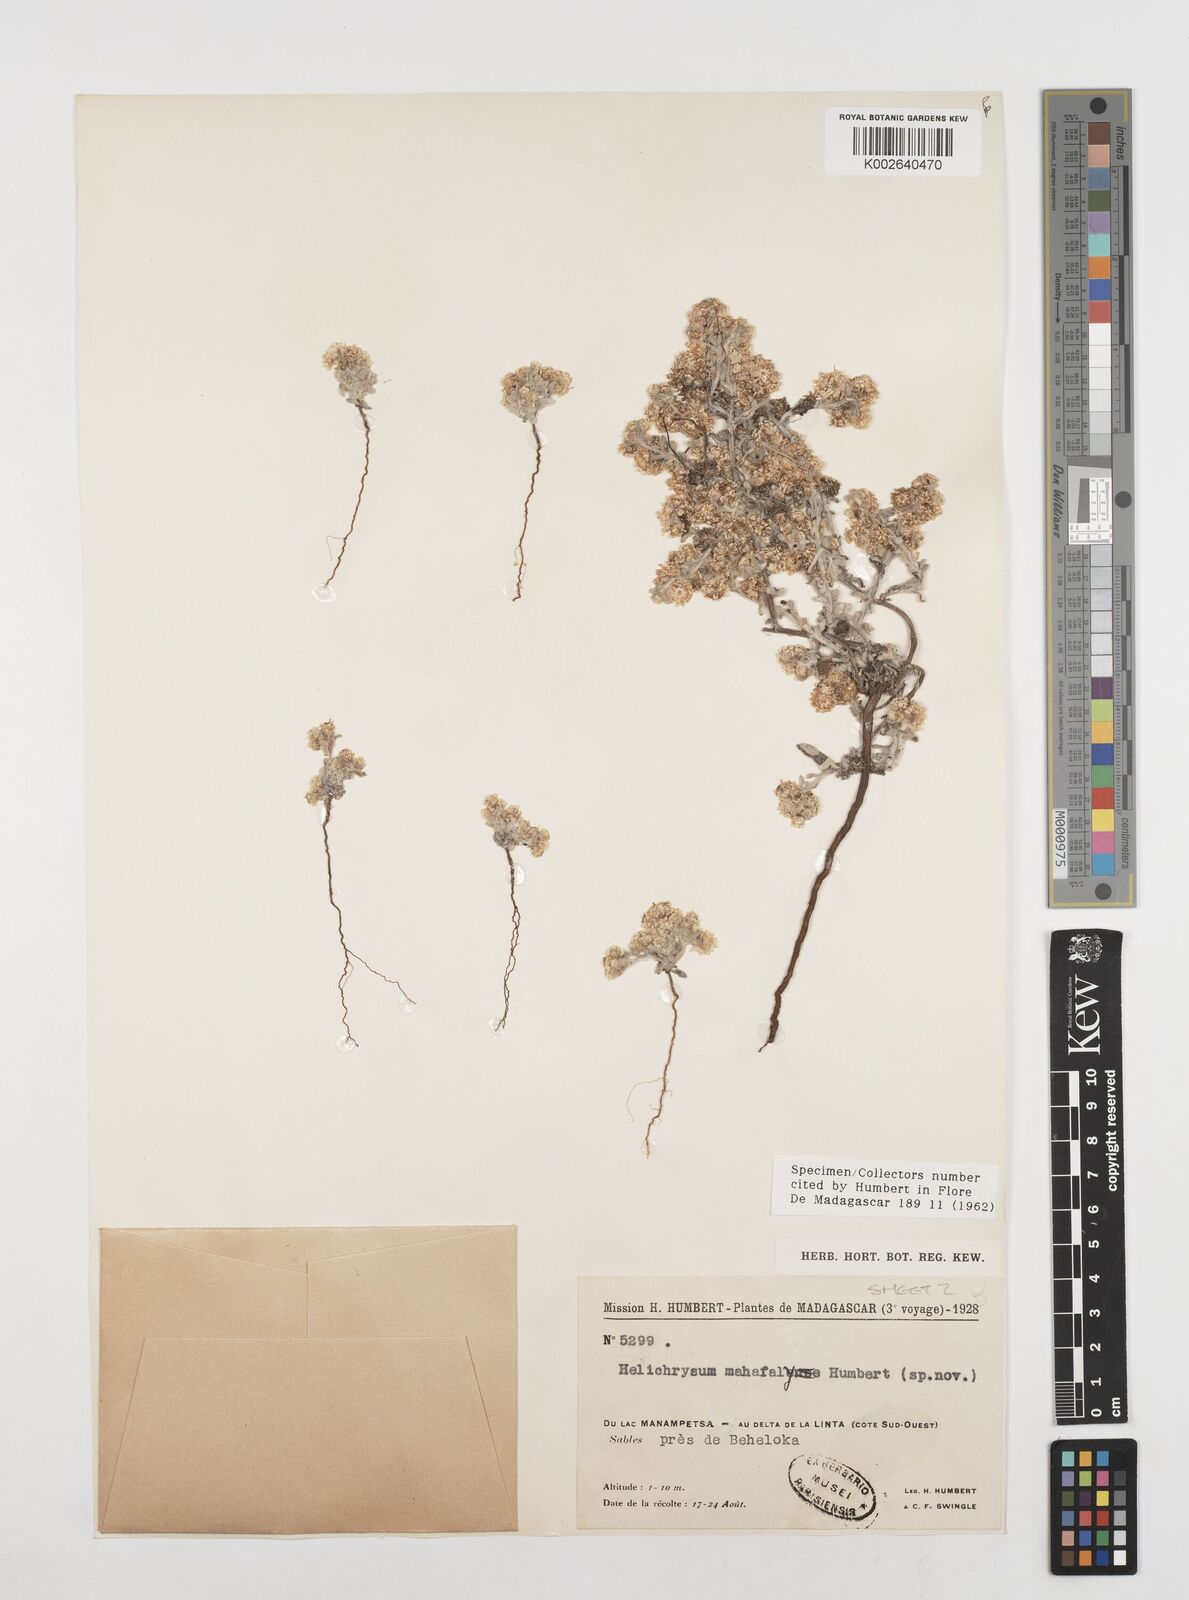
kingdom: Plantae
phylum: Tracheophyta
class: Magnoliopsida
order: Asterales
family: Asteraceae
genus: Helichrysum
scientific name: Helichrysum mahafaly
